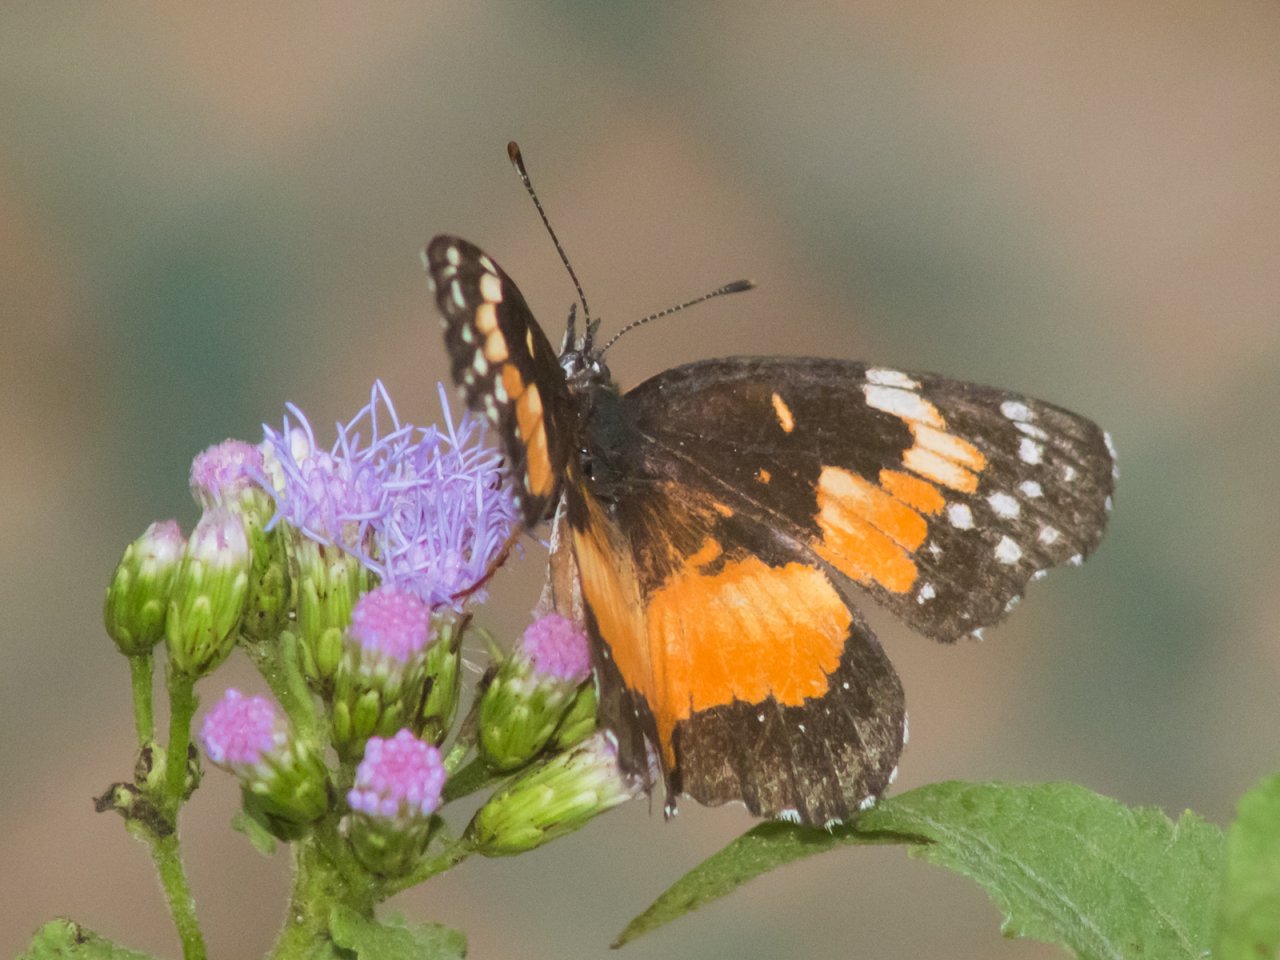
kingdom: Animalia
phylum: Arthropoda
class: Insecta
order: Lepidoptera
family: Nymphalidae
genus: Chlosyne
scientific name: Chlosyne lacinia
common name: Bordered Patch
